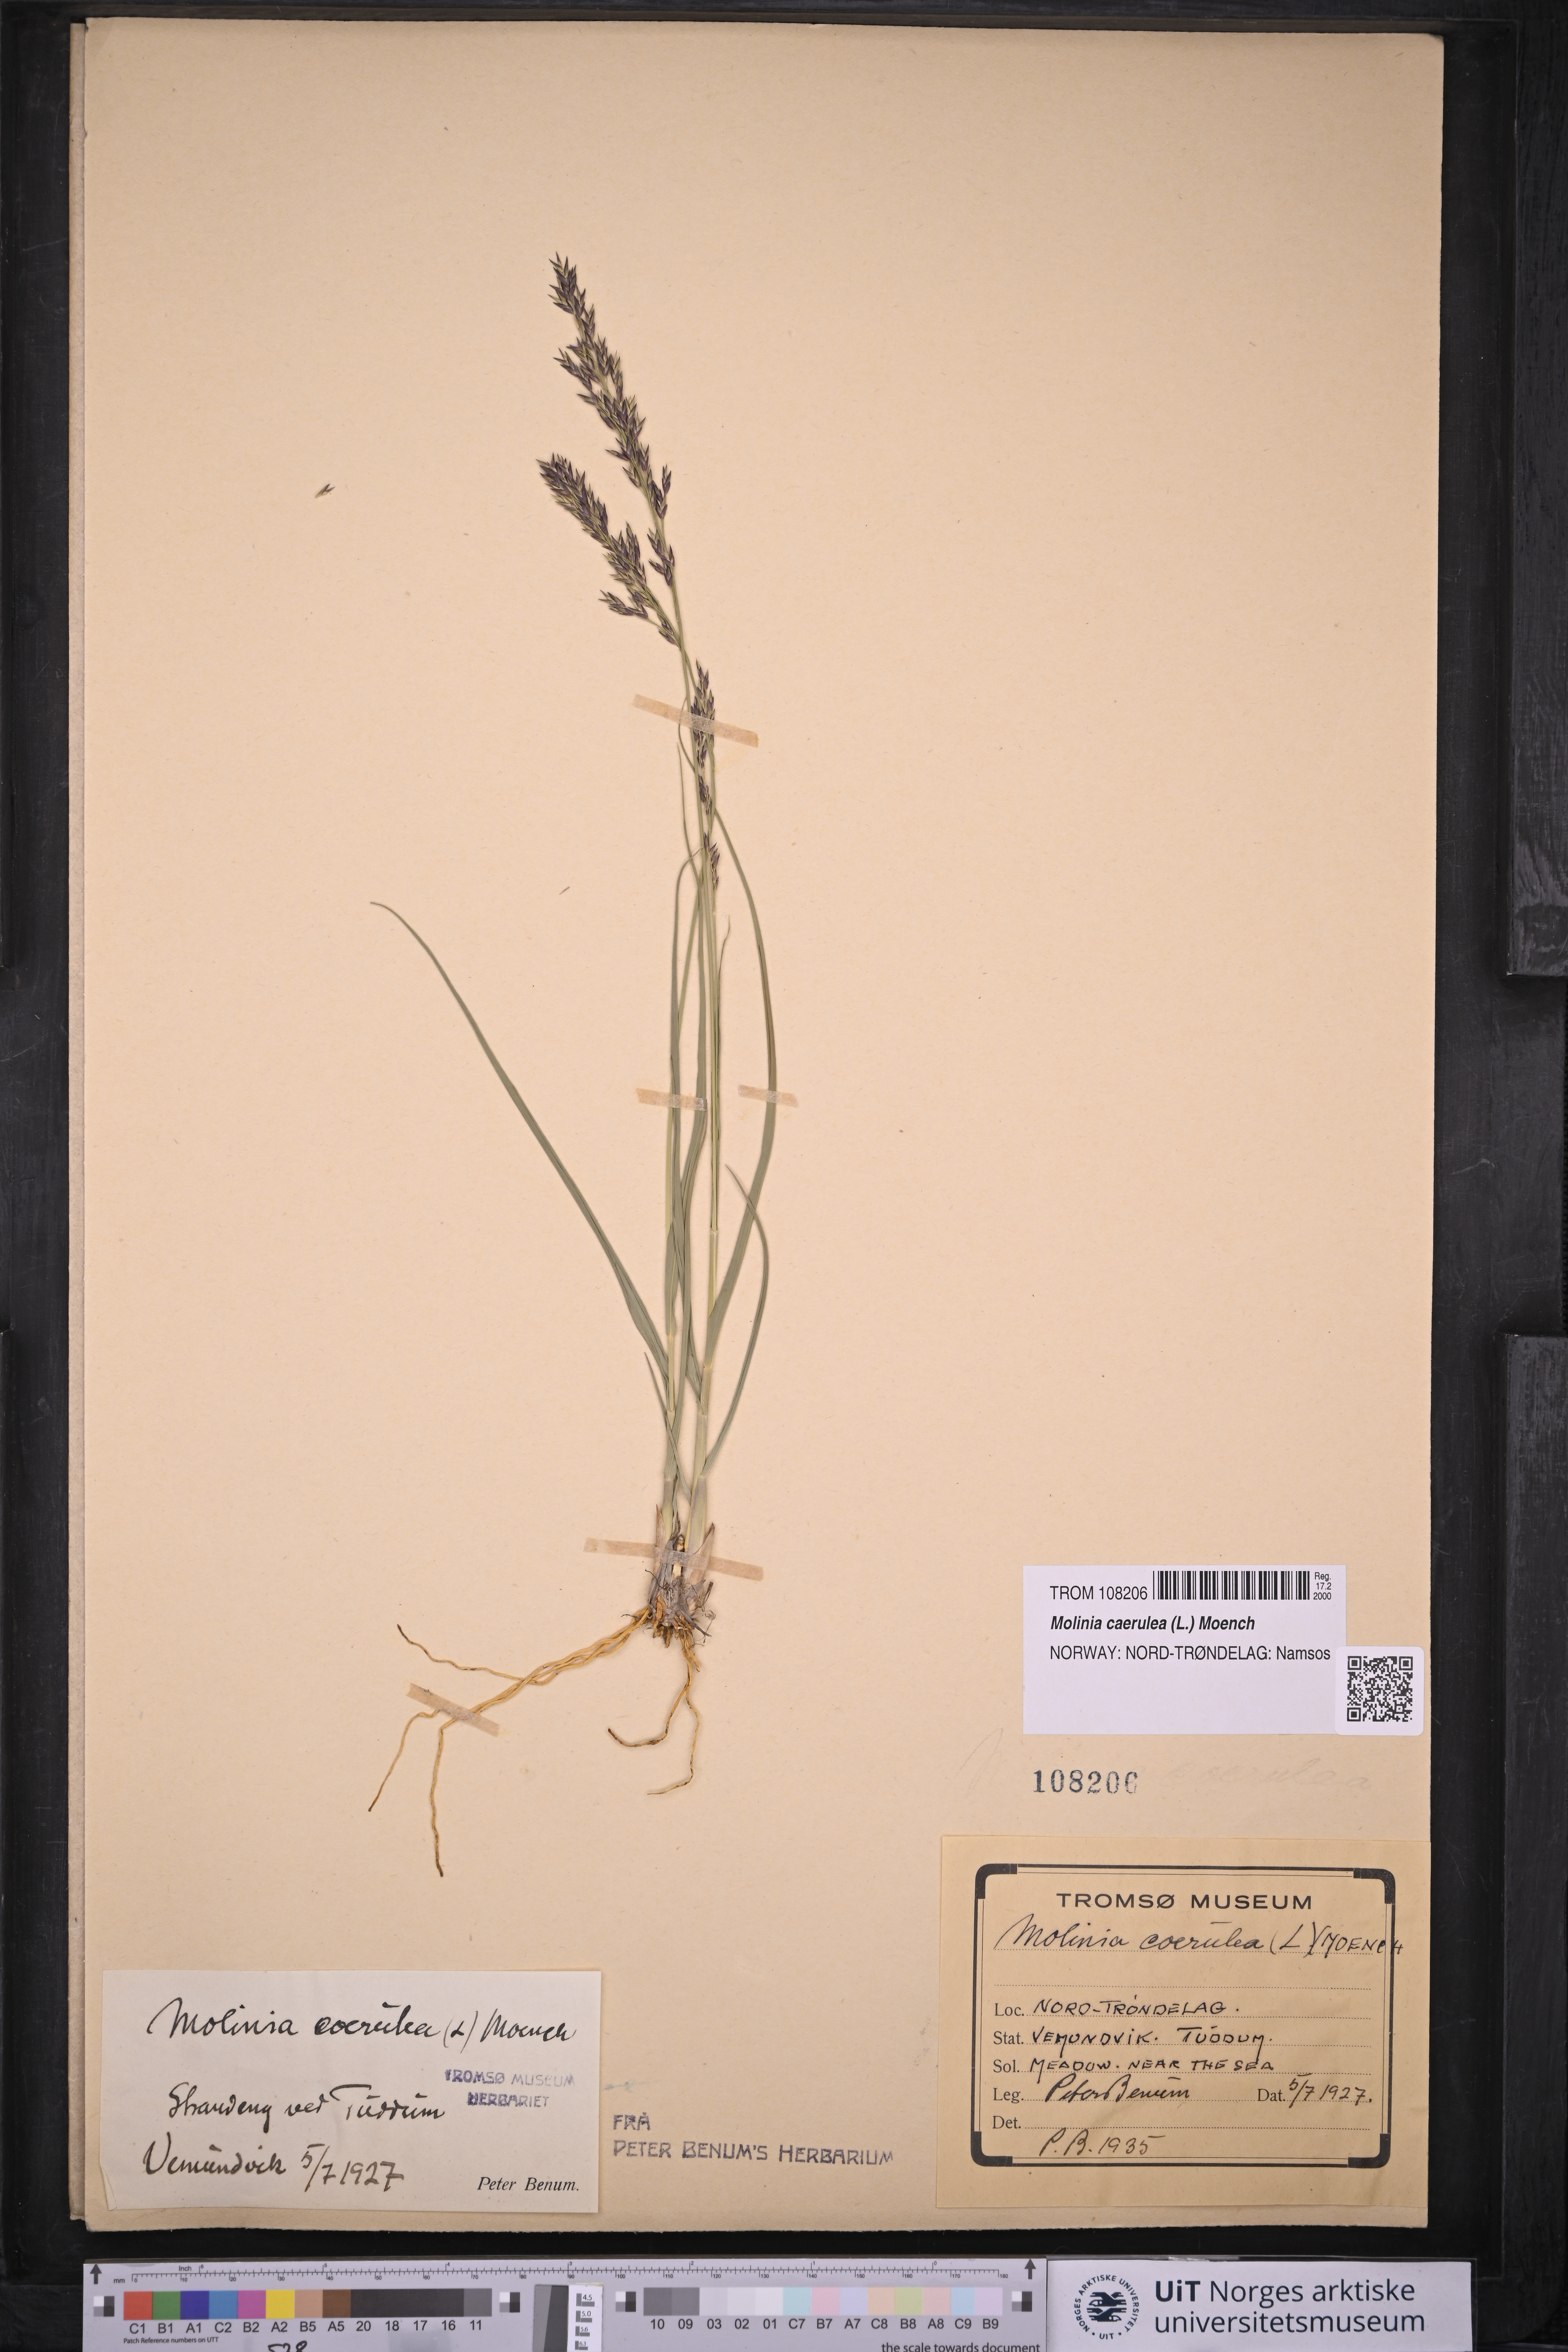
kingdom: Plantae
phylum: Tracheophyta
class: Liliopsida
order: Poales
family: Poaceae
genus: Molinia
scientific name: Molinia caerulea
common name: Purple moor-grass
